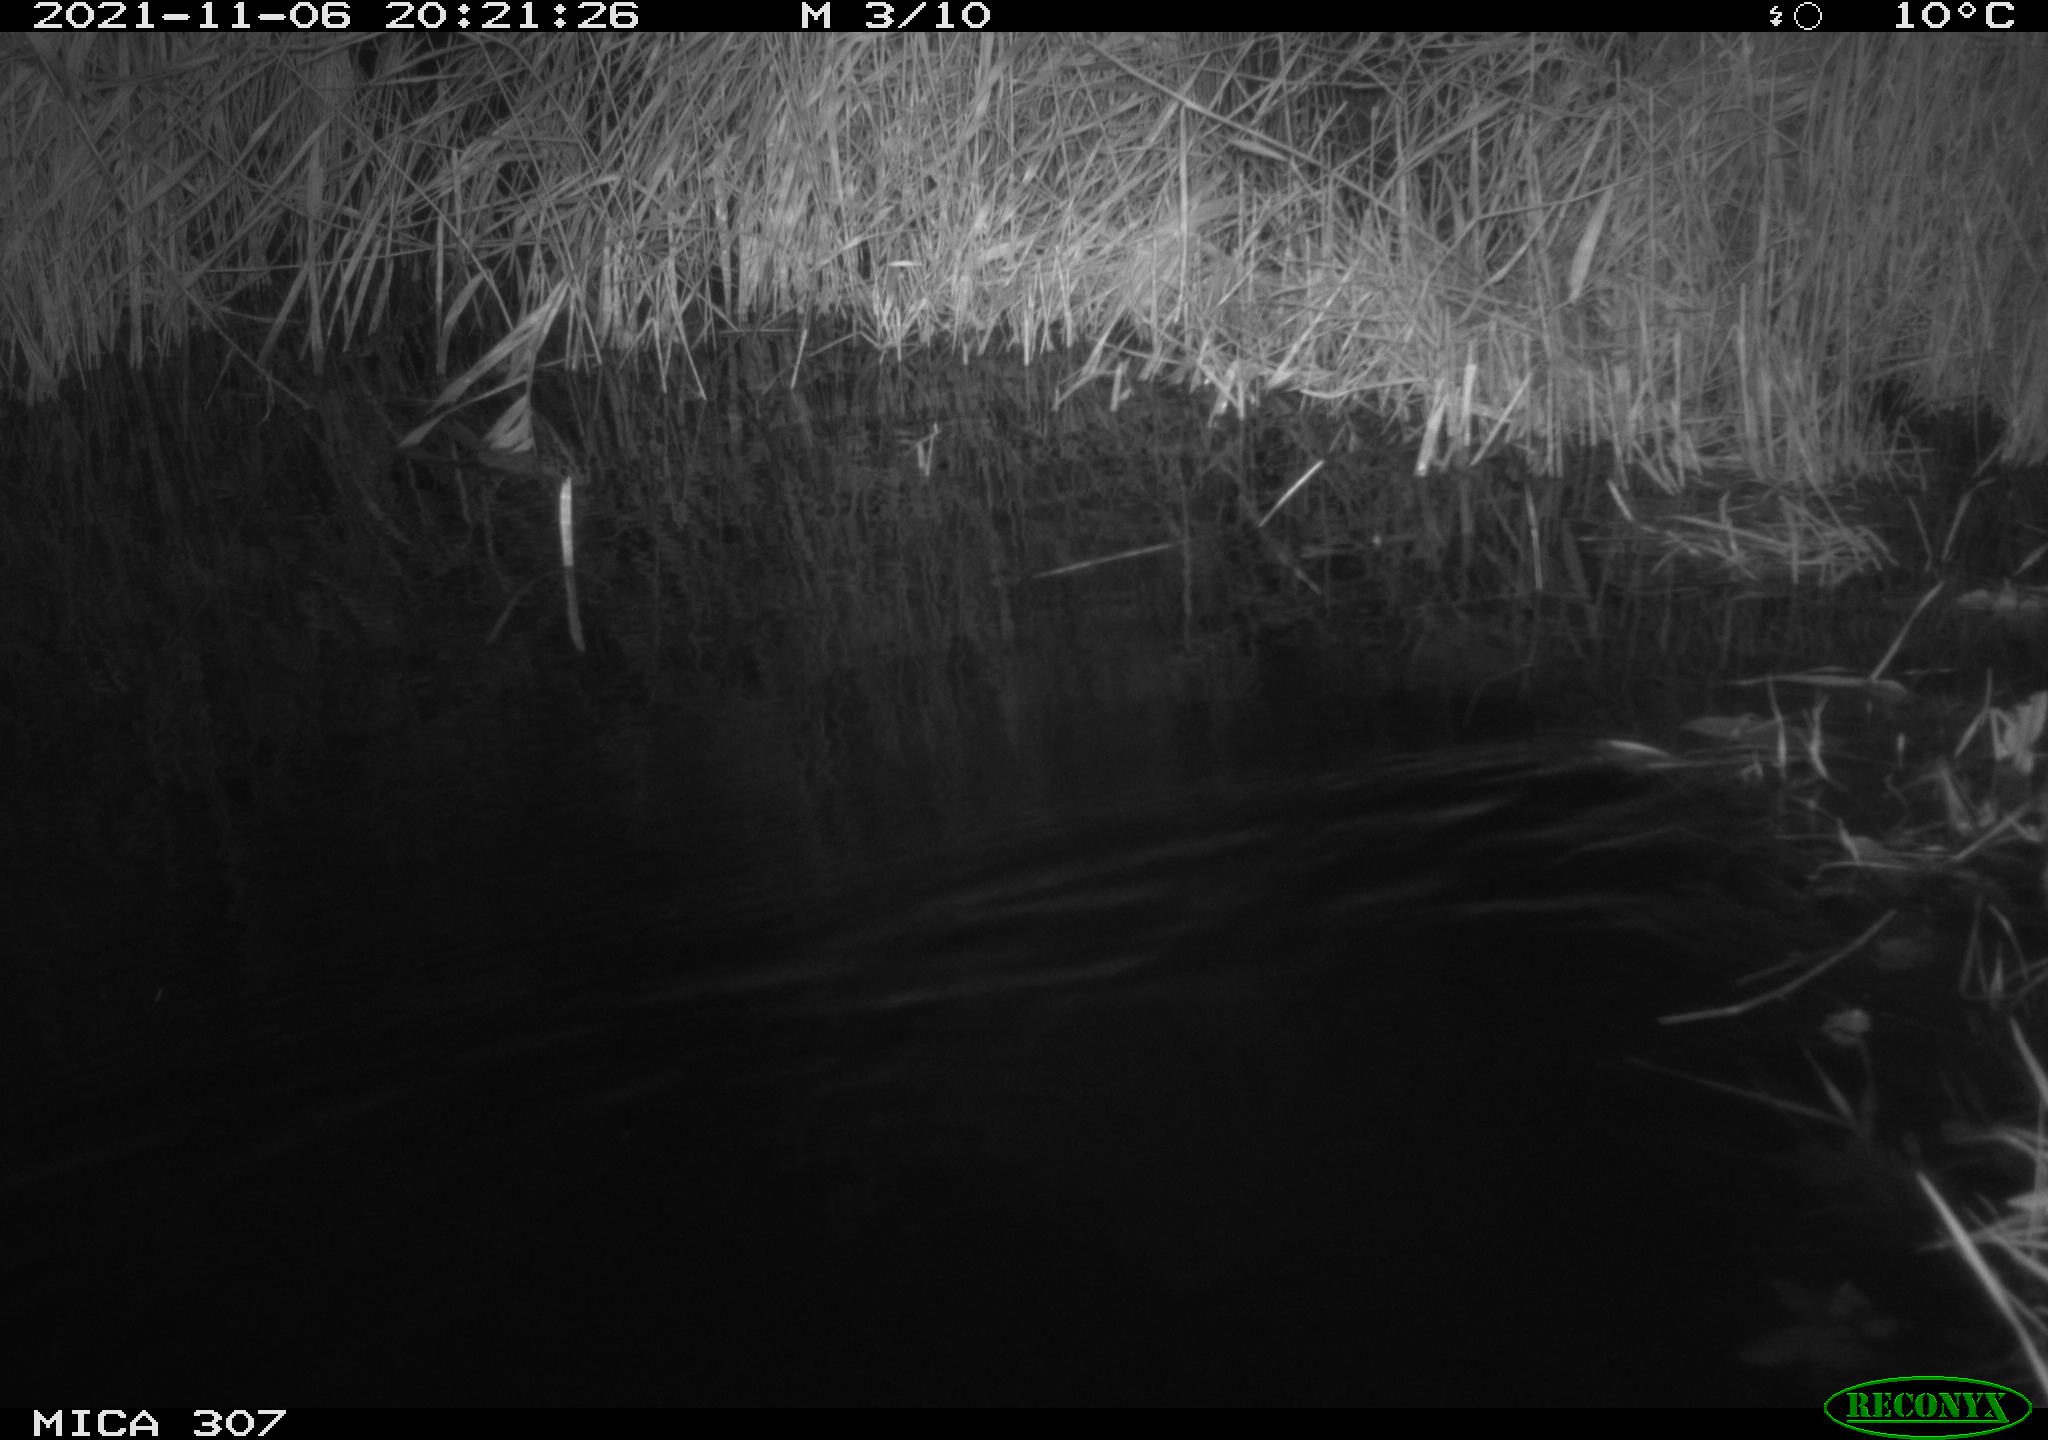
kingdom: Animalia
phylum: Chordata
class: Mammalia
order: Rodentia
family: Muridae
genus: Rattus
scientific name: Rattus norvegicus
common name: Brown rat
